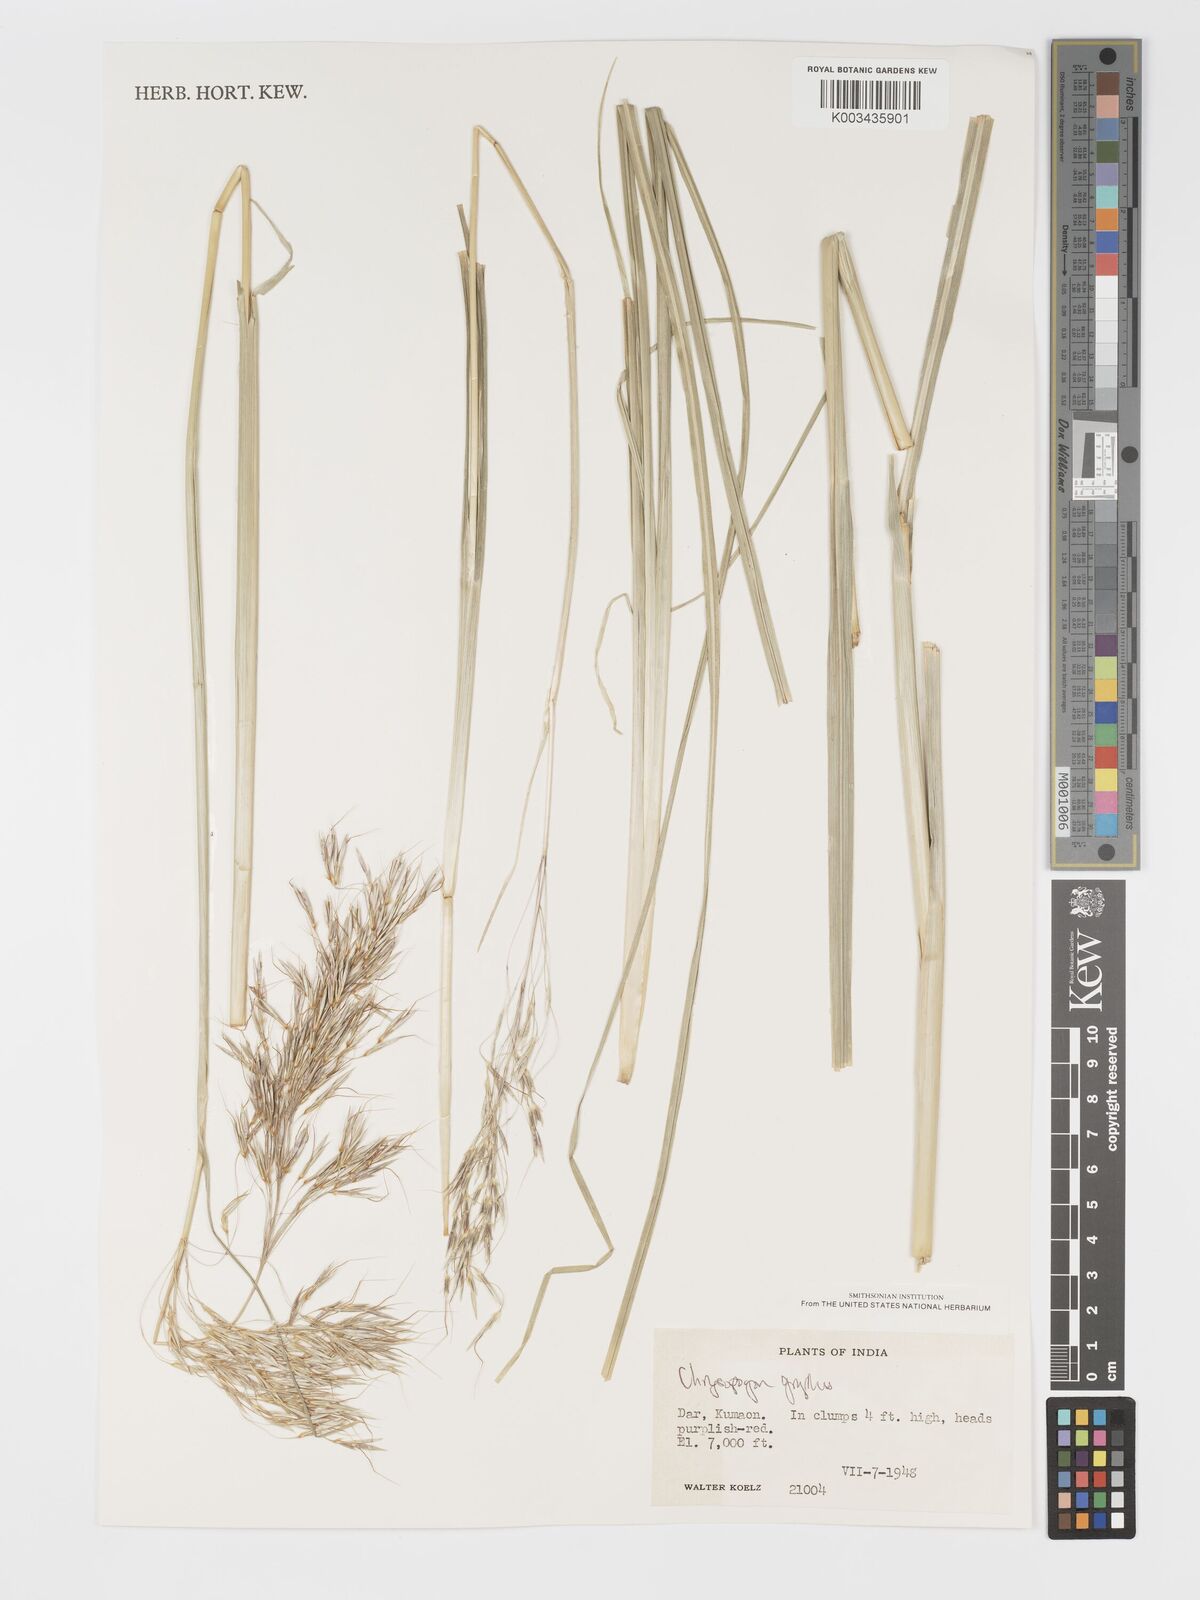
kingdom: Plantae
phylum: Tracheophyta
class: Liliopsida
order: Poales
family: Poaceae
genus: Chrysopogon
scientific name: Chrysopogon gryllus
